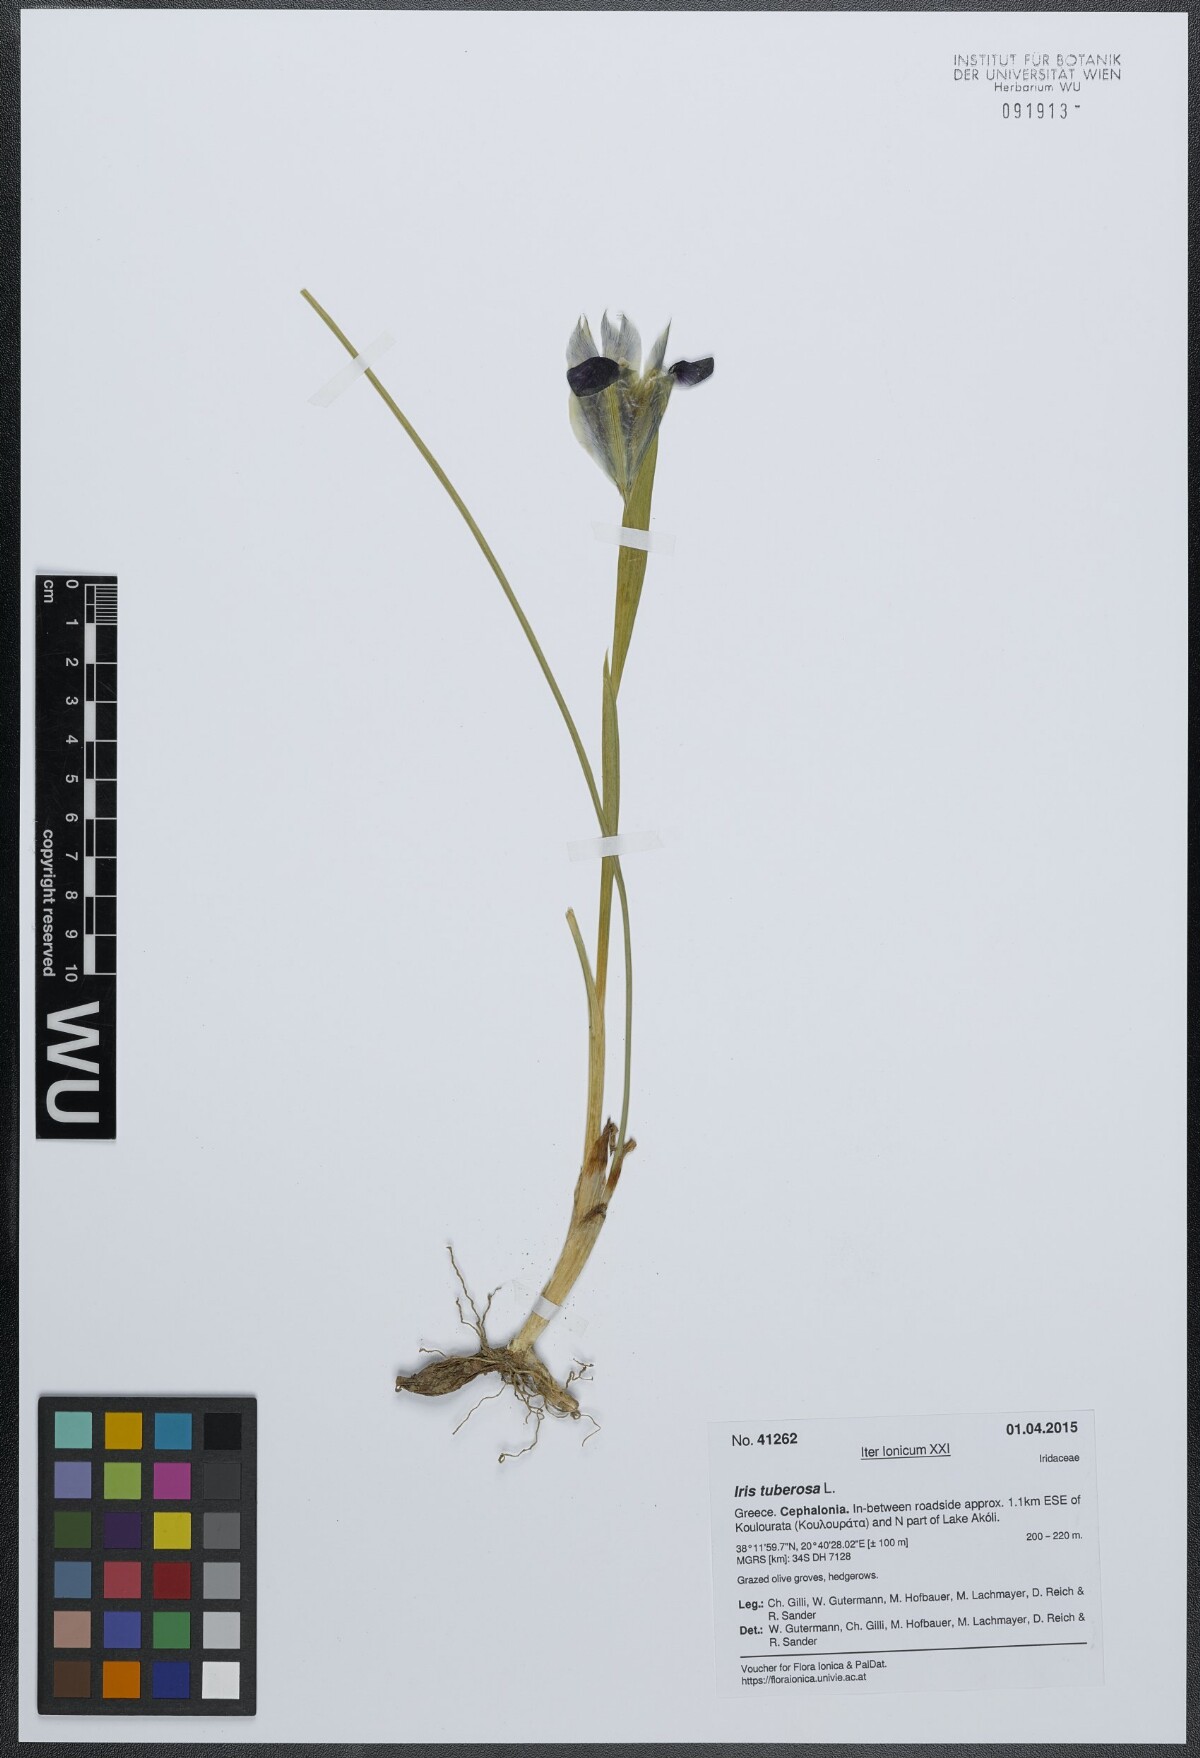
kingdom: Plantae
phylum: Tracheophyta
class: Liliopsida
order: Asparagales
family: Iridaceae
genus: Iris
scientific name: Iris tuberosa
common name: Snake's-head iris
